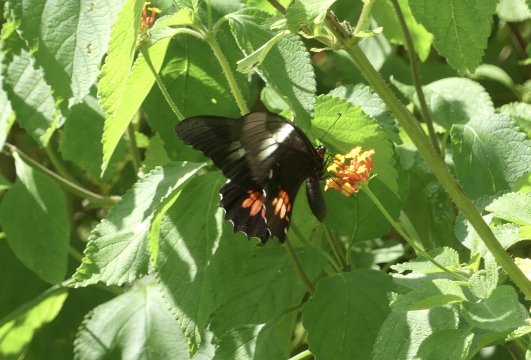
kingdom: Animalia
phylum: Arthropoda
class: Insecta
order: Lepidoptera
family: Papilionidae
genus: Papilio
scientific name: Papilio anchisiades
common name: Ruby-spotted Swallowtail
